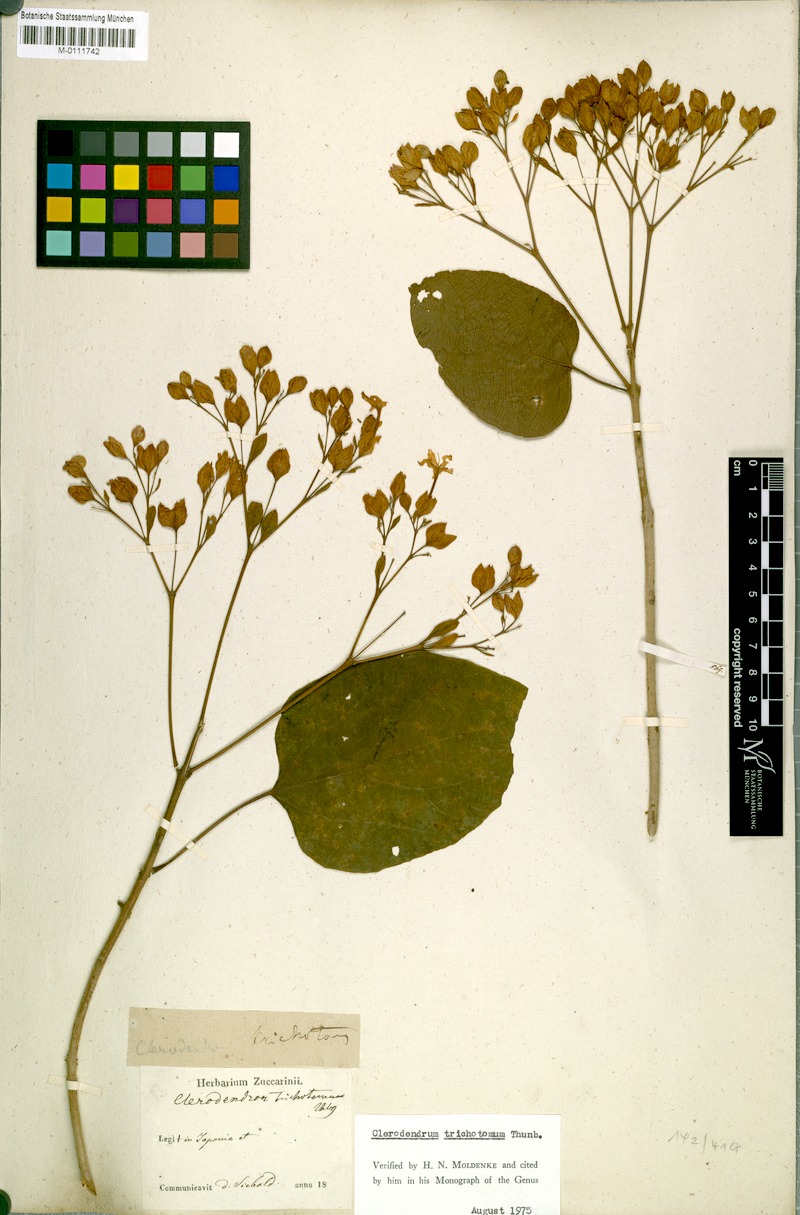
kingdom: Plantae
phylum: Tracheophyta
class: Magnoliopsida
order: Lamiales
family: Lamiaceae
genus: Clerodendrum
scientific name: Clerodendrum trichotomum
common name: Harlequin glorybower
